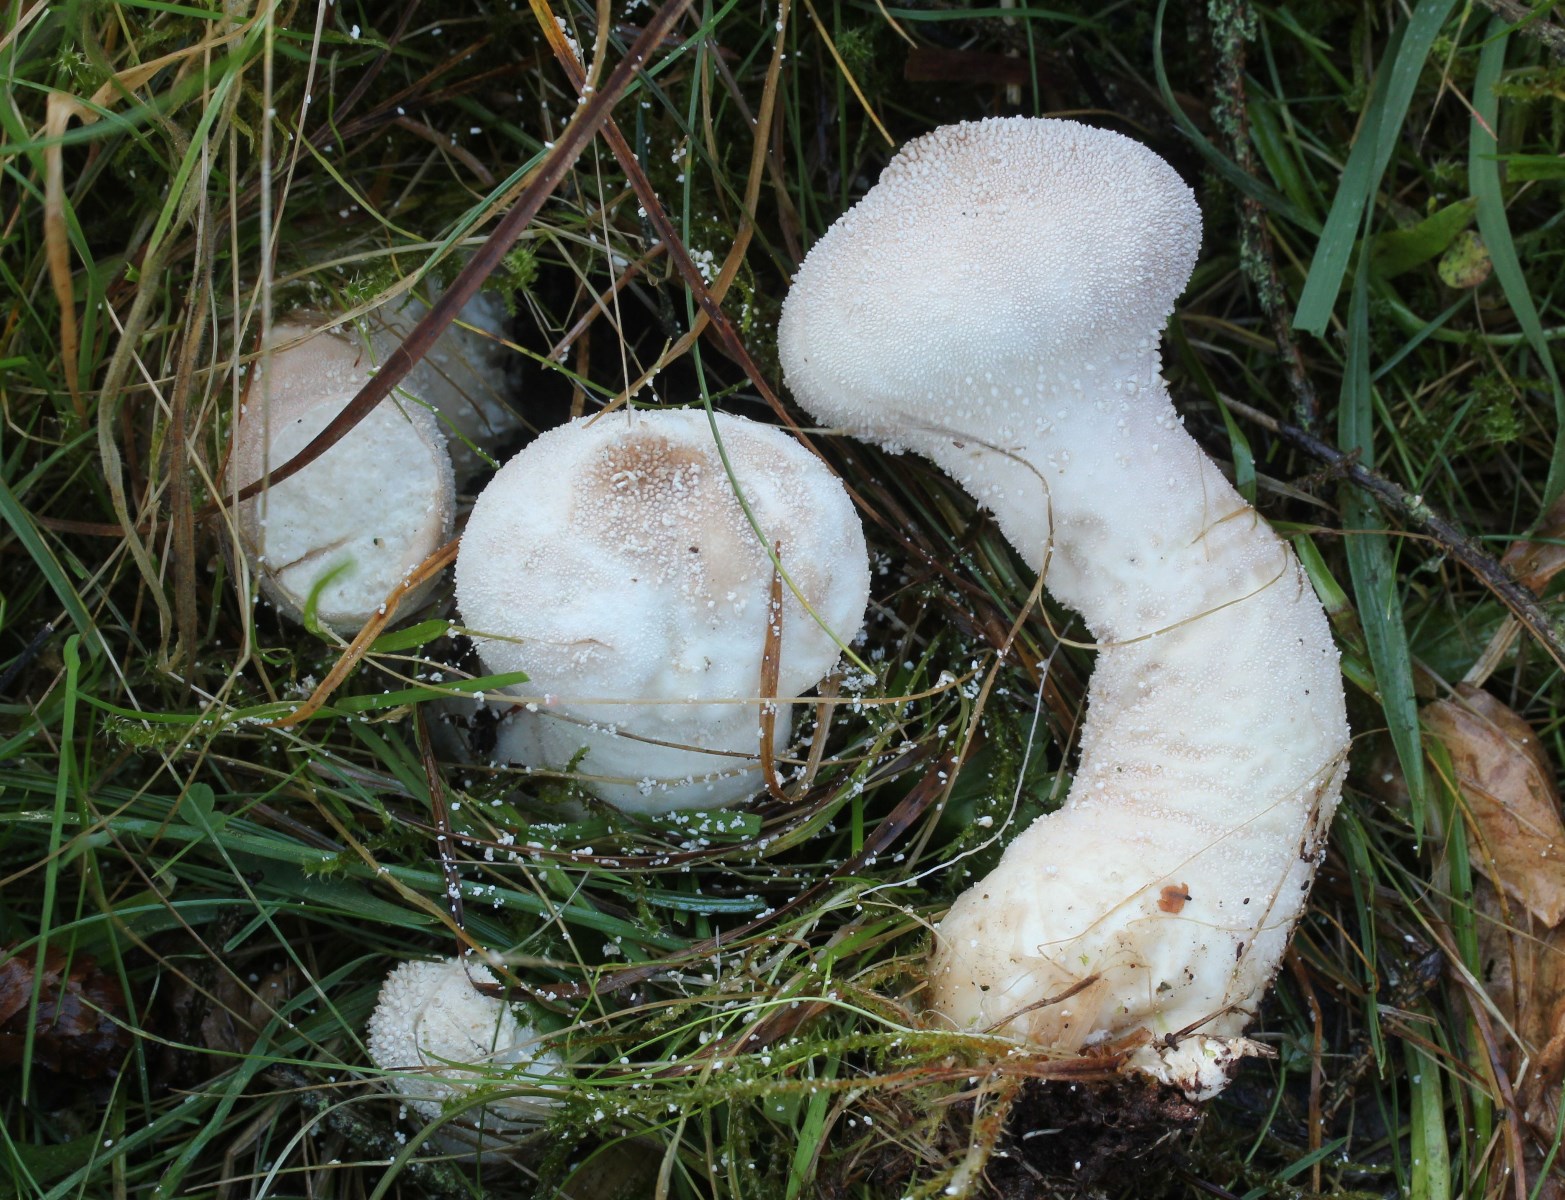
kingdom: Fungi
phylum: Basidiomycota
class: Agaricomycetes
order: Agaricales
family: Lycoperdaceae
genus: Lycoperdon
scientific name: Lycoperdon excipuliforme
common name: højstokket støvbold
